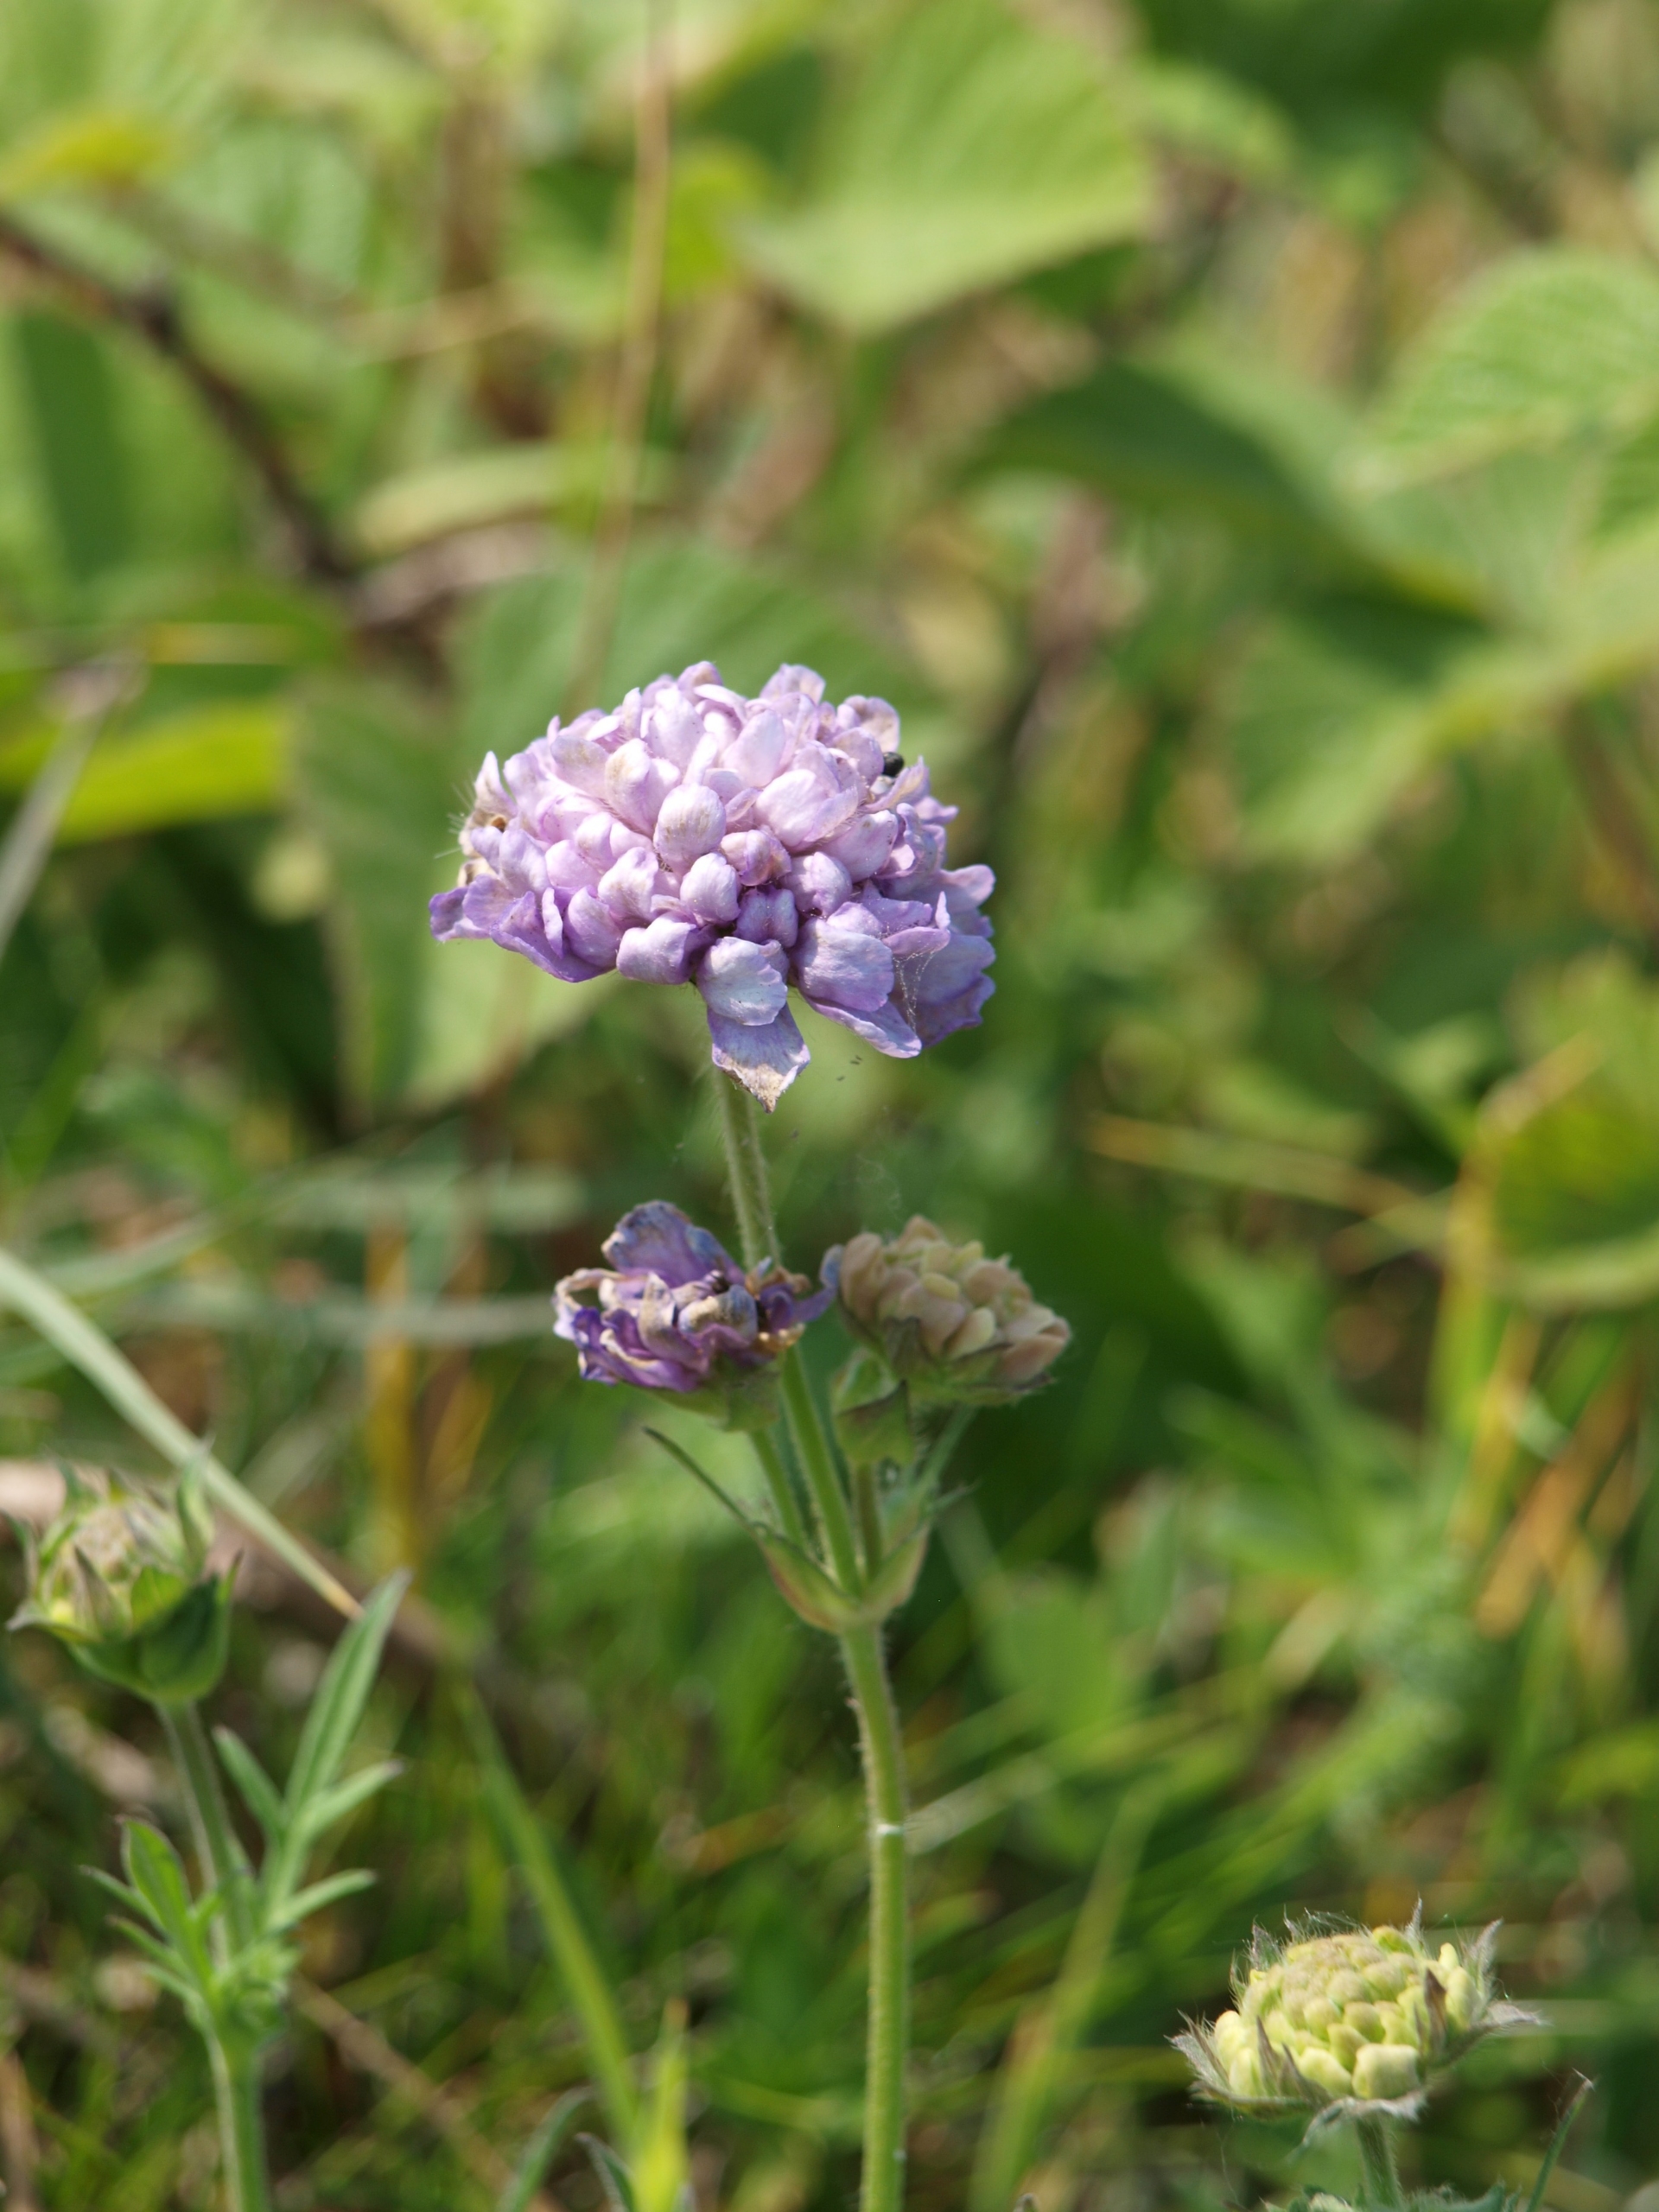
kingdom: Plantae
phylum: Tracheophyta
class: Magnoliopsida
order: Dipsacales
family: Caprifoliaceae
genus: Knautia
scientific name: Knautia arvensis
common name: Blåhat
